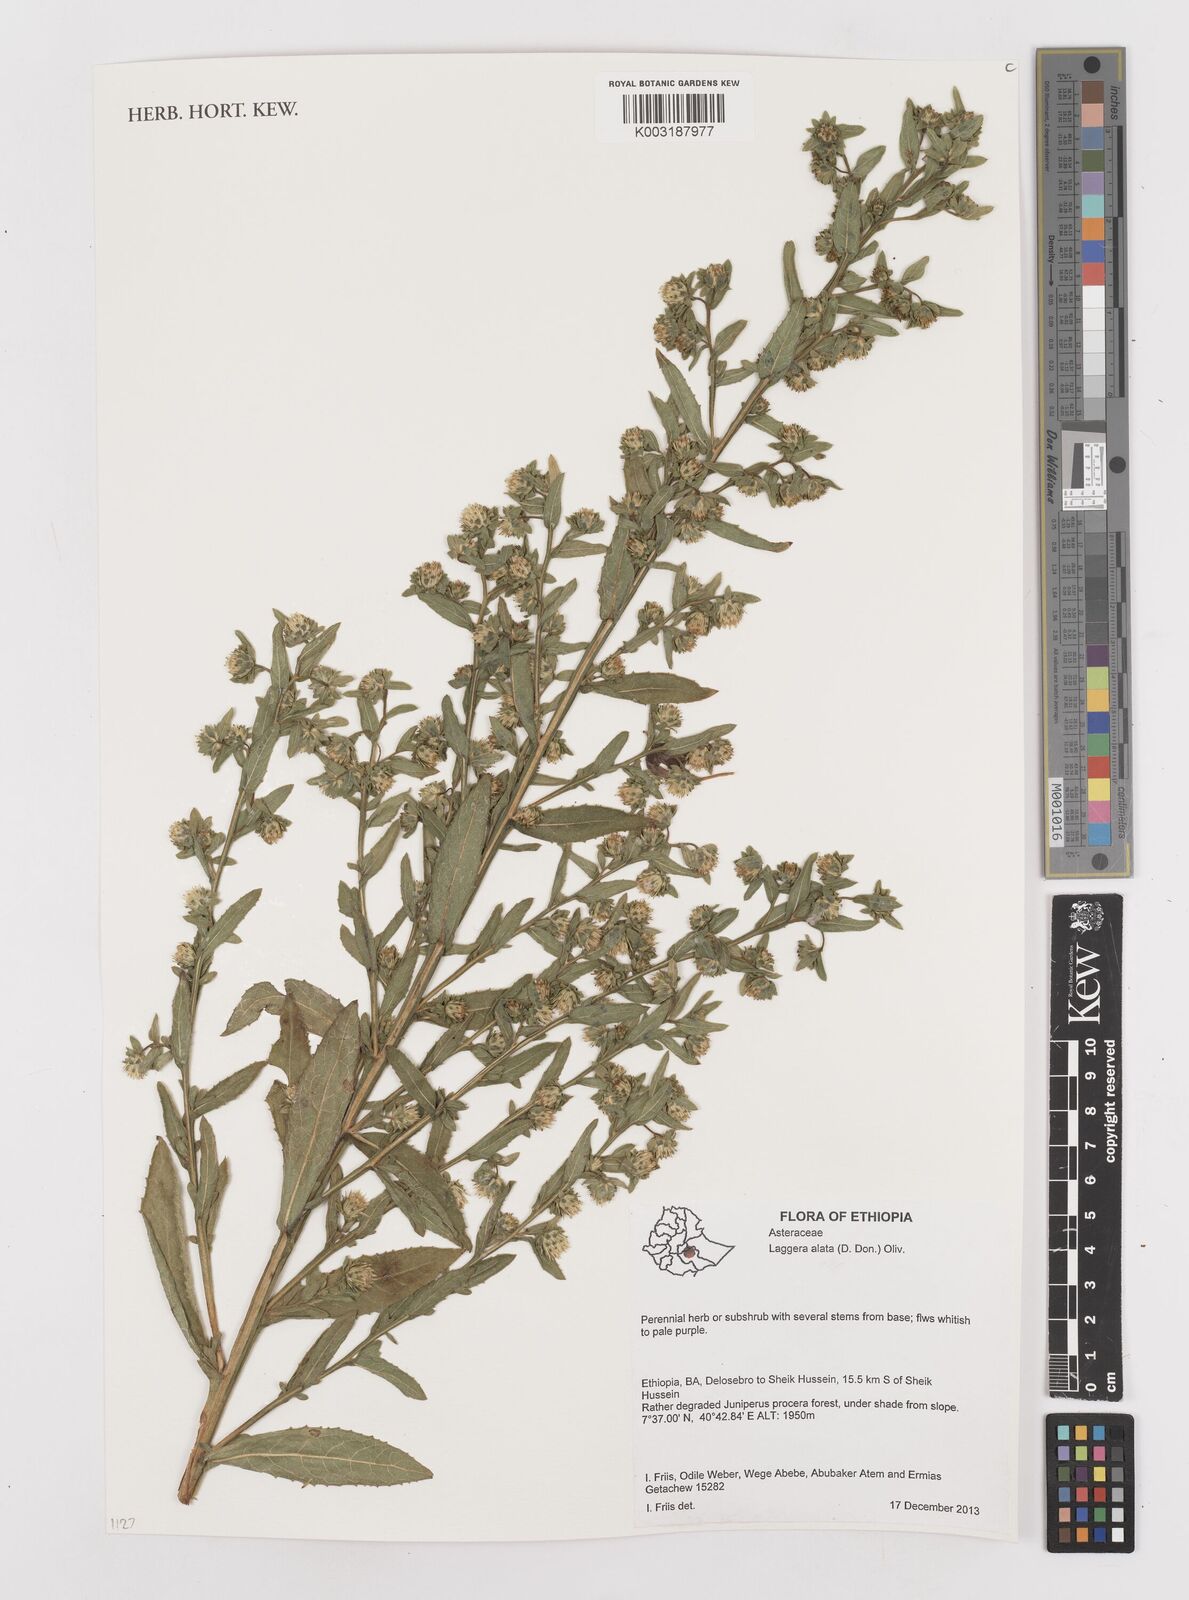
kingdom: Plantae
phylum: Tracheophyta
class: Magnoliopsida
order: Asterales
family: Asteraceae
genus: Laggera
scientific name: Laggera crispata
